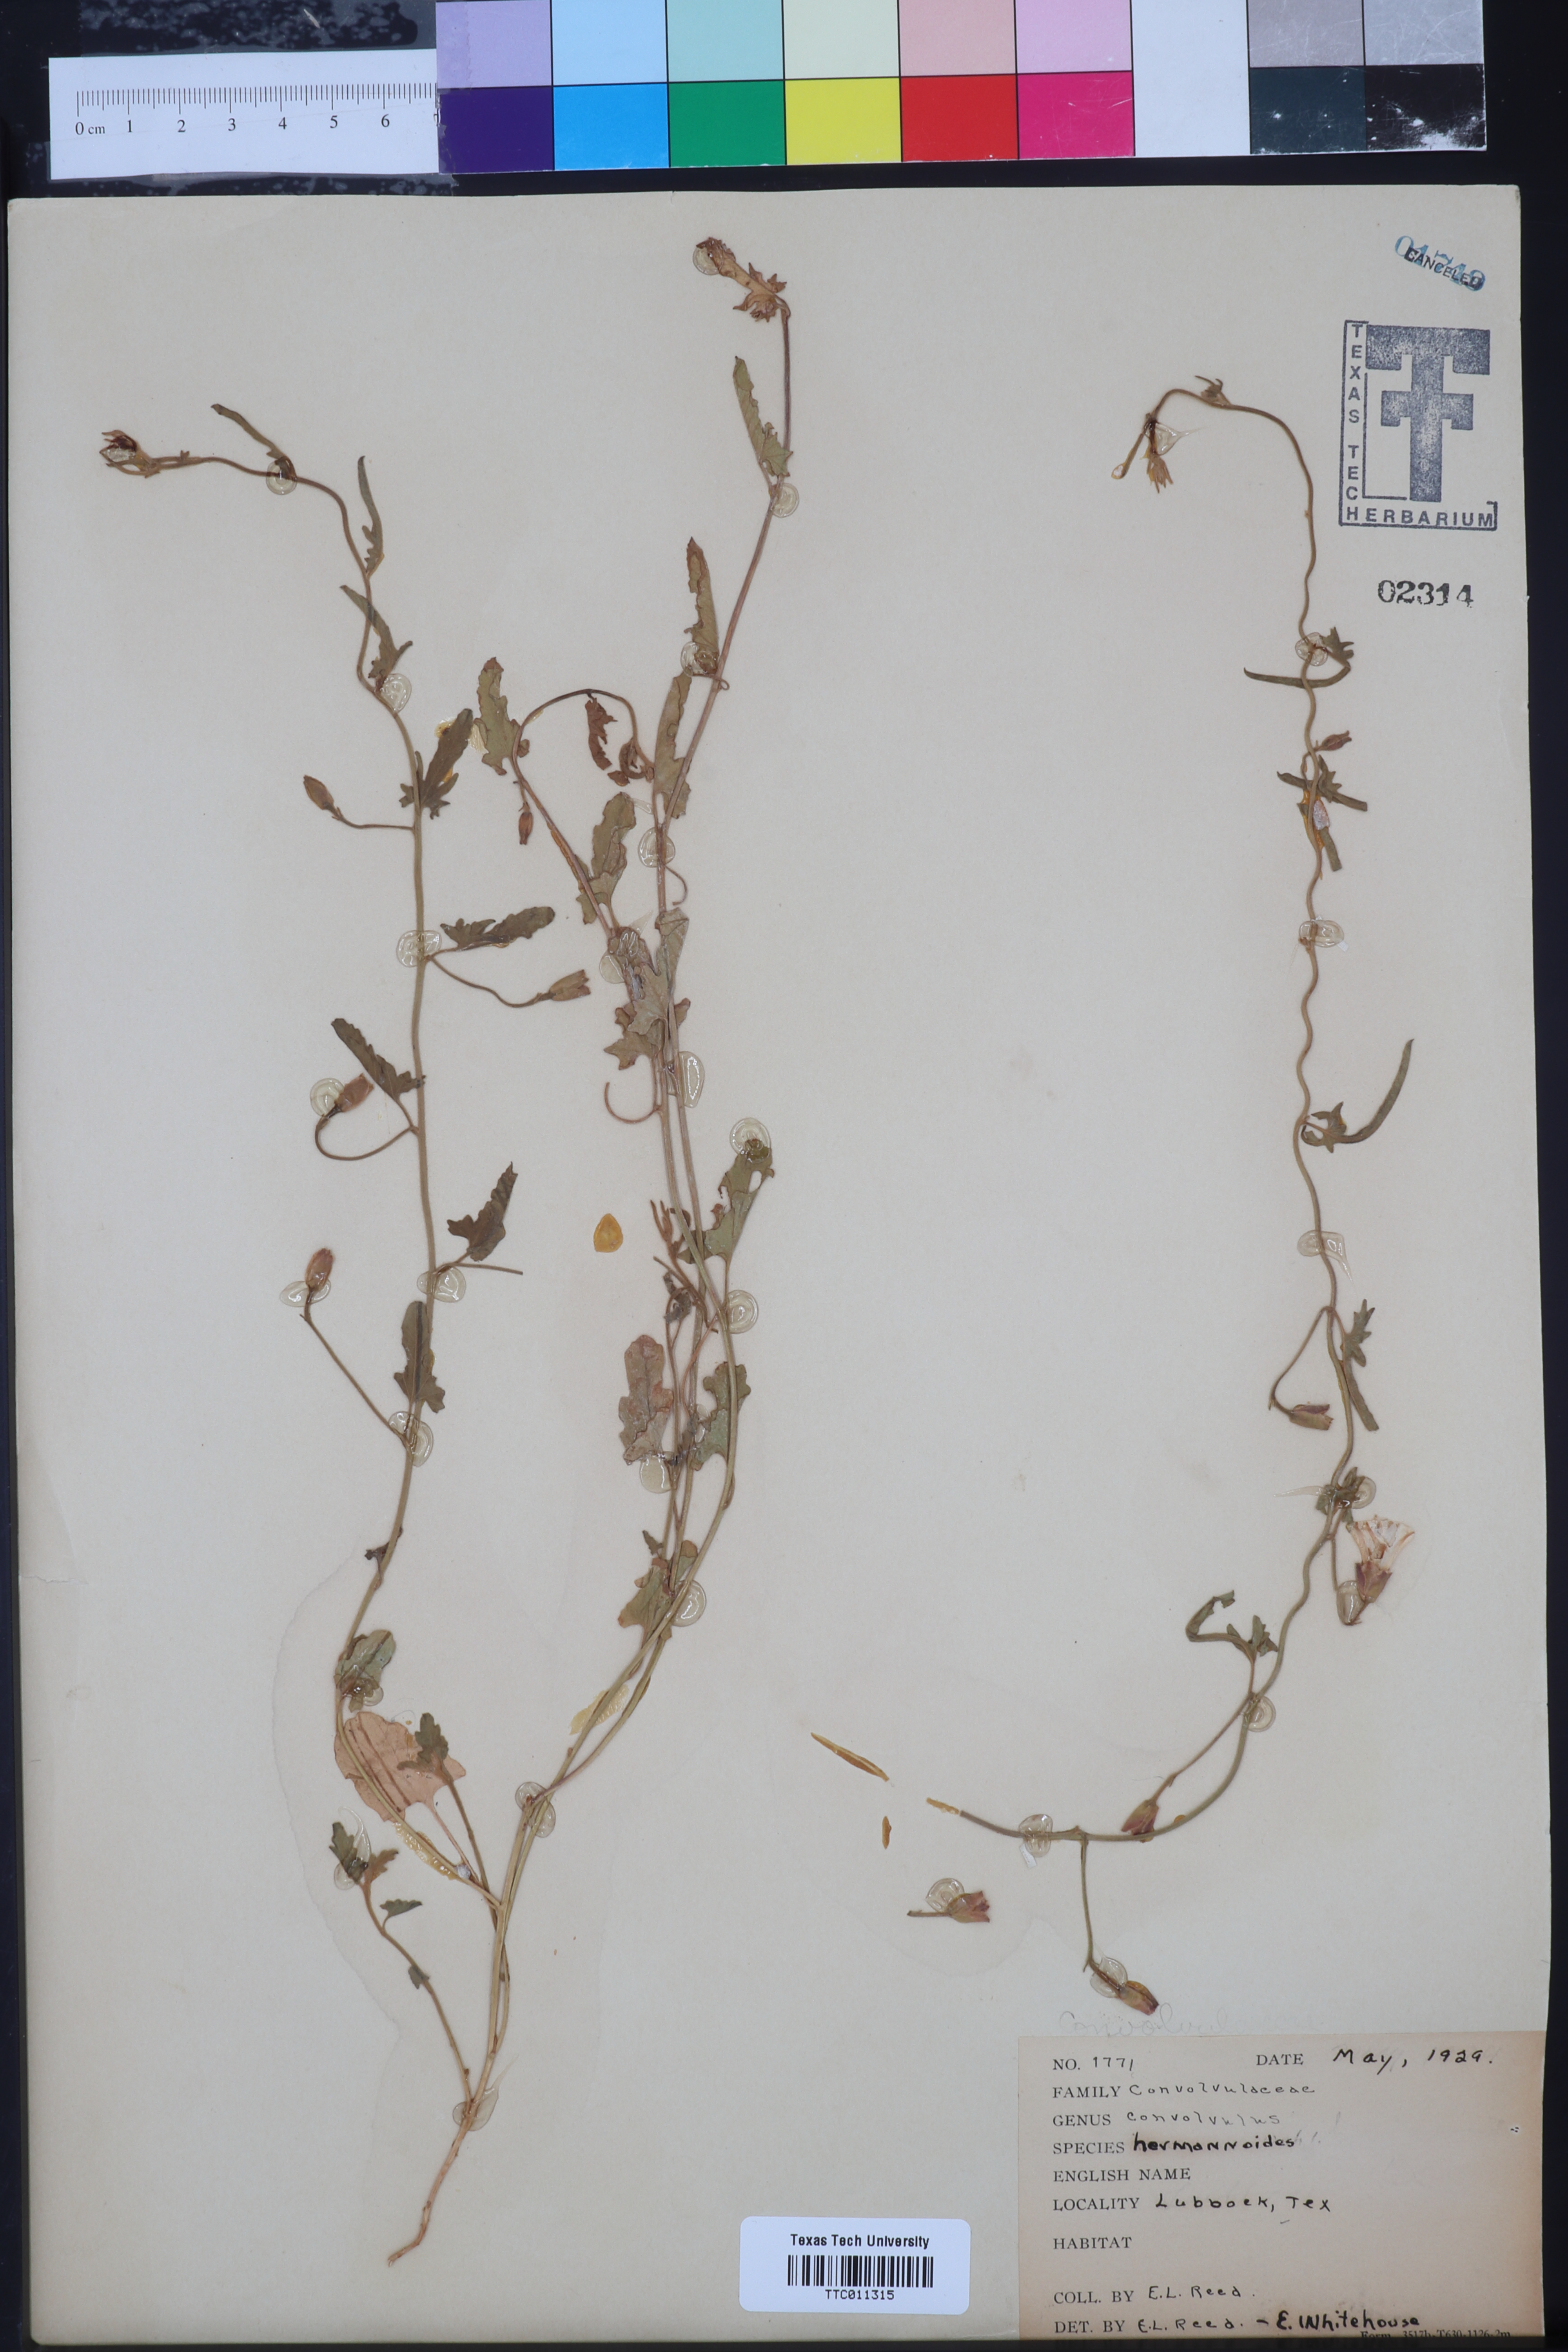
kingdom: Plantae
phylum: Tracheophyta
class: Magnoliopsida
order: Solanales
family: Convolvulaceae
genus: Convolvulus
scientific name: Convolvulus equitans
